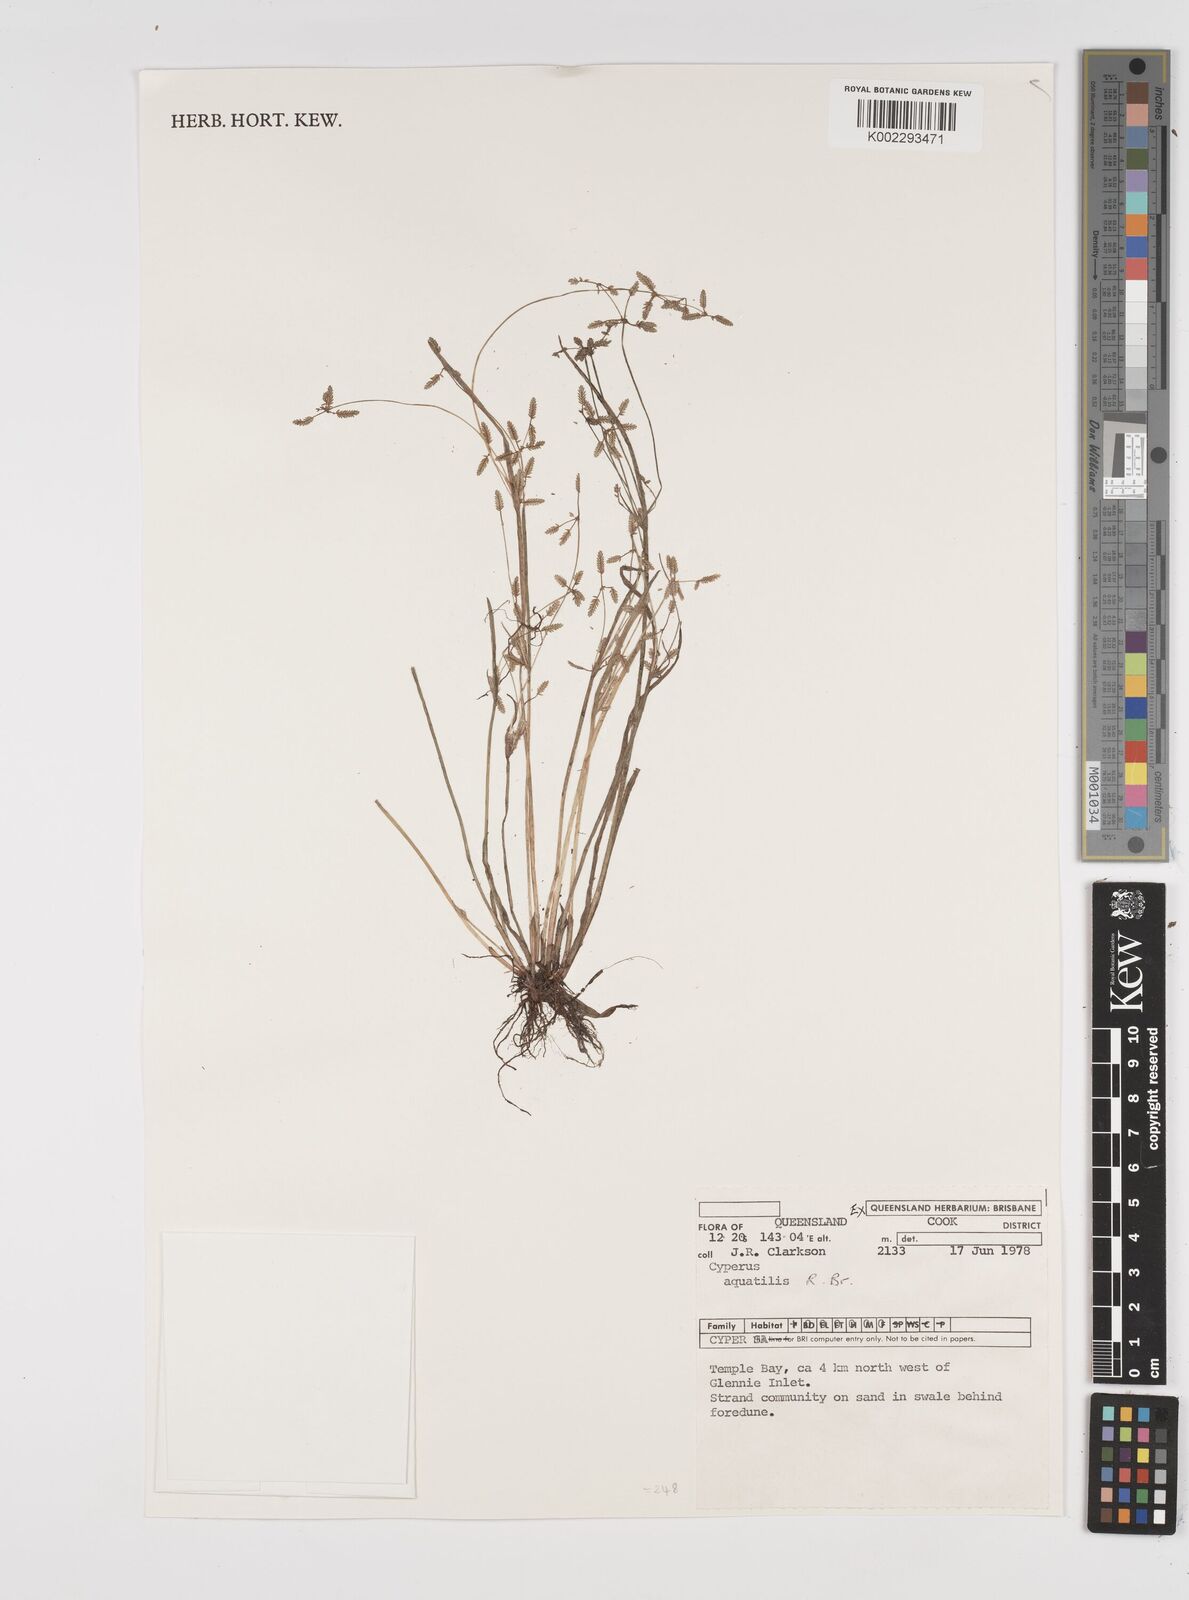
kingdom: Plantae
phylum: Tracheophyta
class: Liliopsida
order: Poales
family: Cyperaceae
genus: Cyperus
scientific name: Cyperus trinervis
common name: Australian flatsedge
